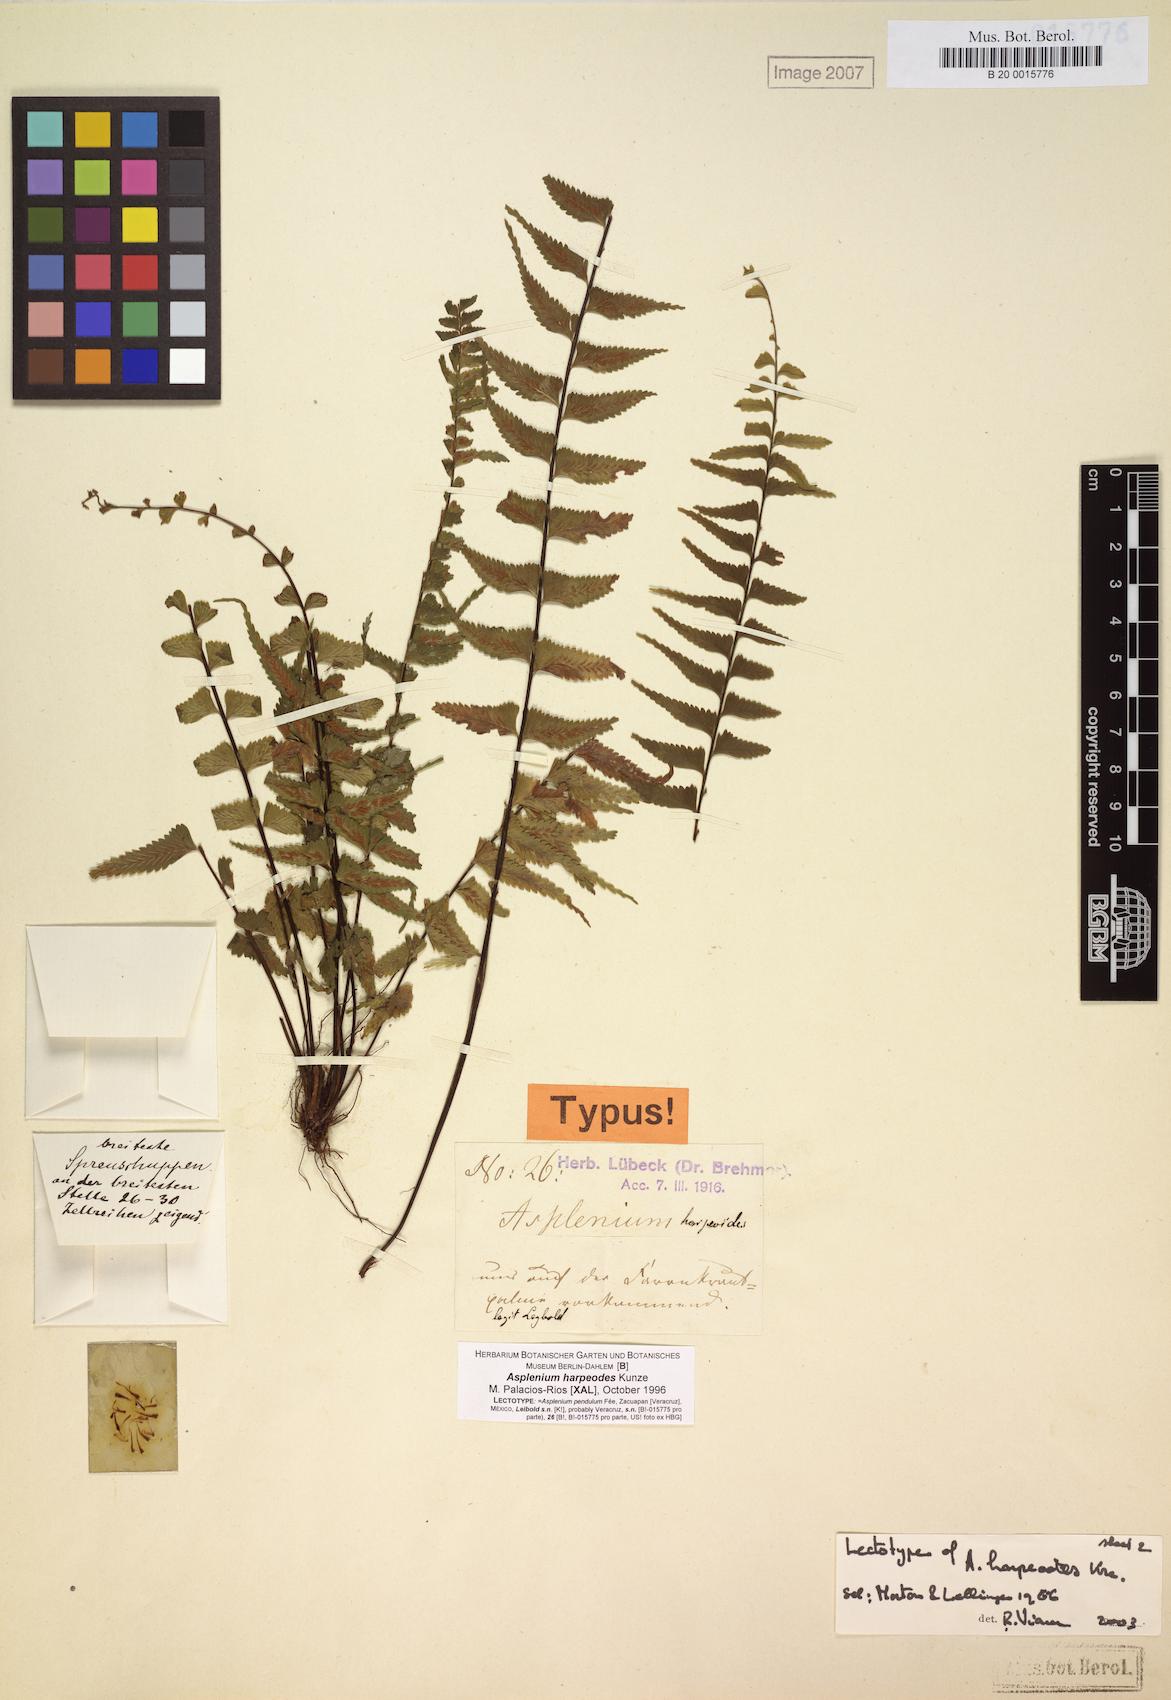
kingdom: Plantae
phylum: Tracheophyta
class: Polypodiopsida
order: Polypodiales
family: Aspleniaceae
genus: Asplenium
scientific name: Asplenium harpeodes
